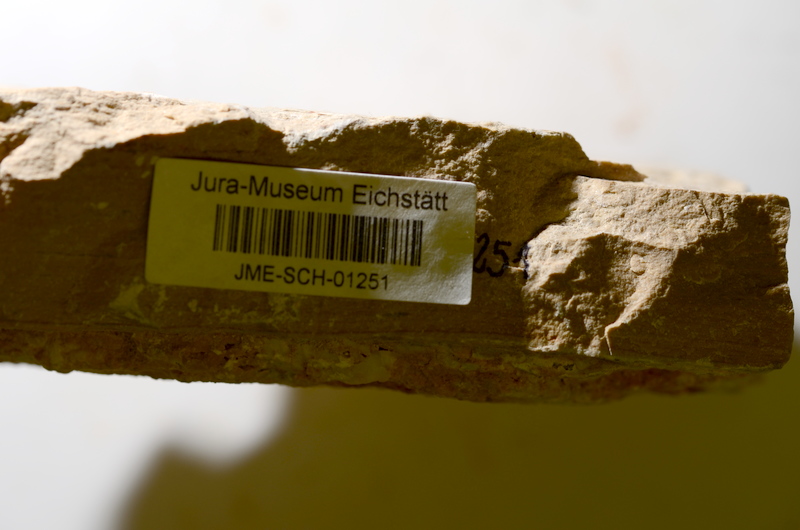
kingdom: Animalia
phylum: Chordata
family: Ascalaboidae
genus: Tharsis
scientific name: Tharsis dubius
